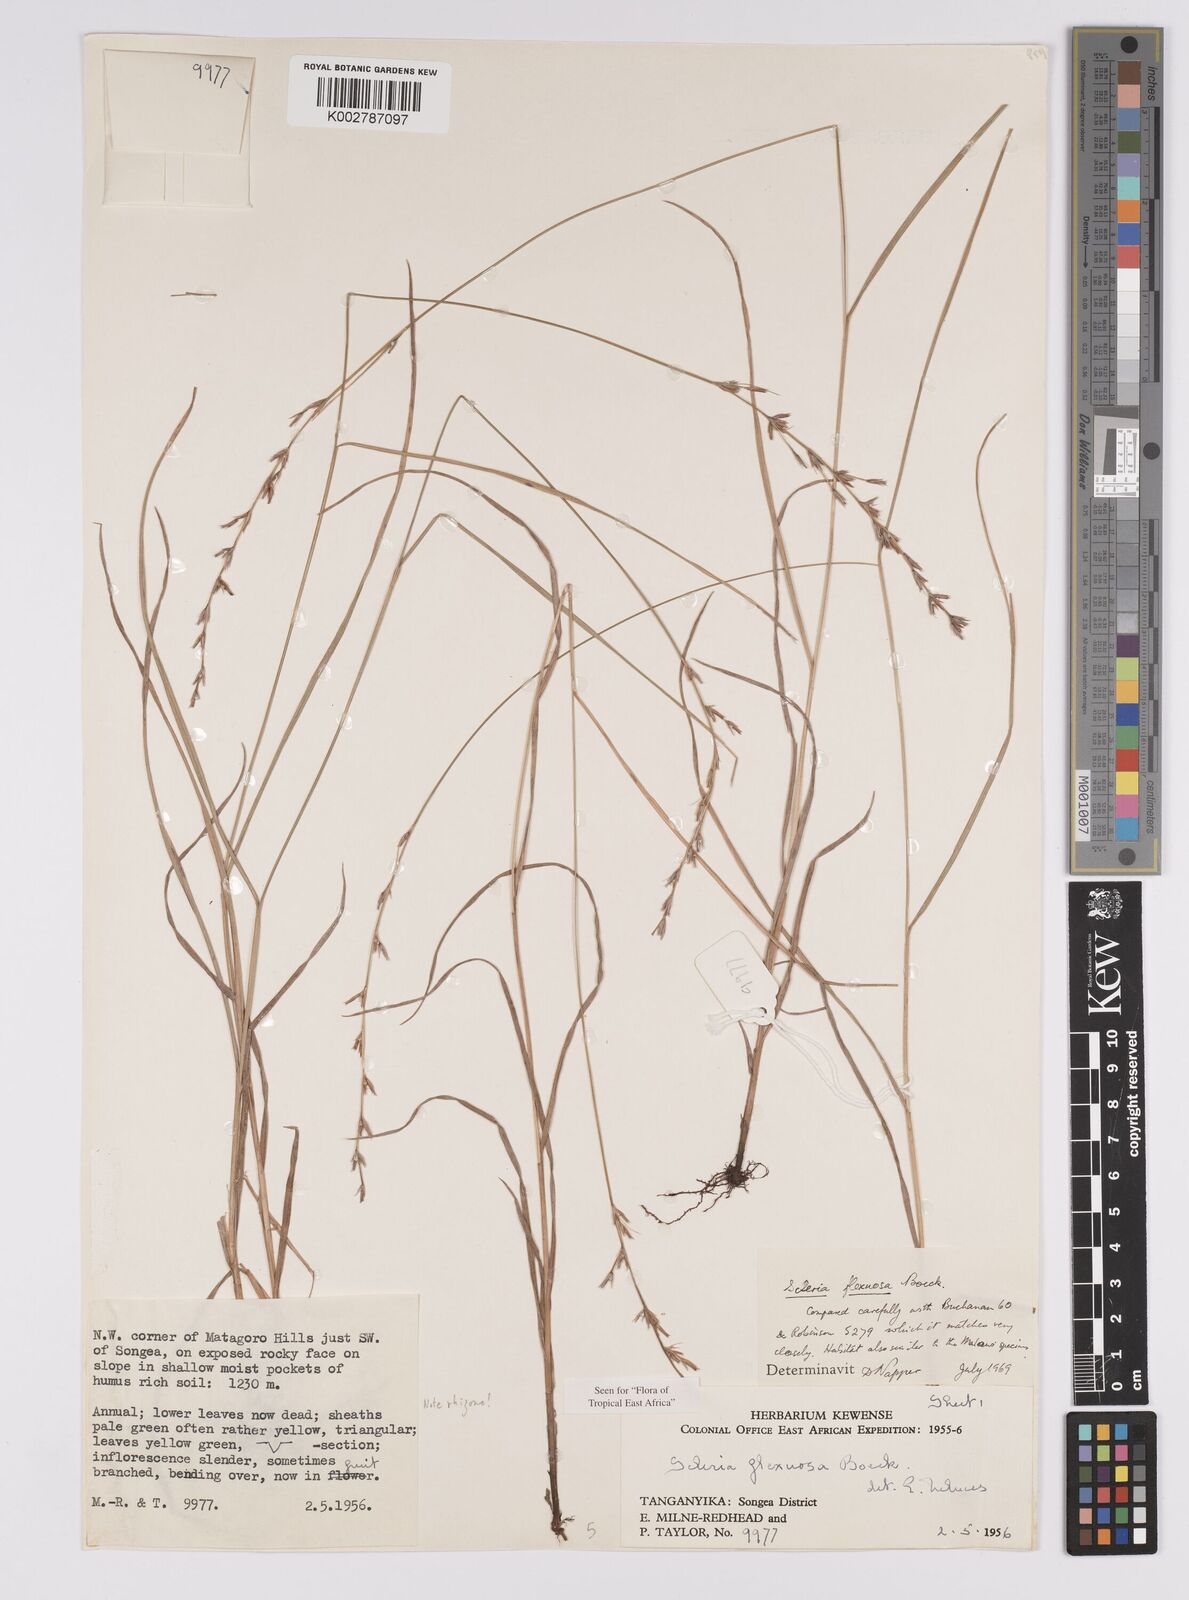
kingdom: Plantae
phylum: Tracheophyta
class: Liliopsida
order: Poales
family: Cyperaceae
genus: Scleria
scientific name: Scleria flexuosa
